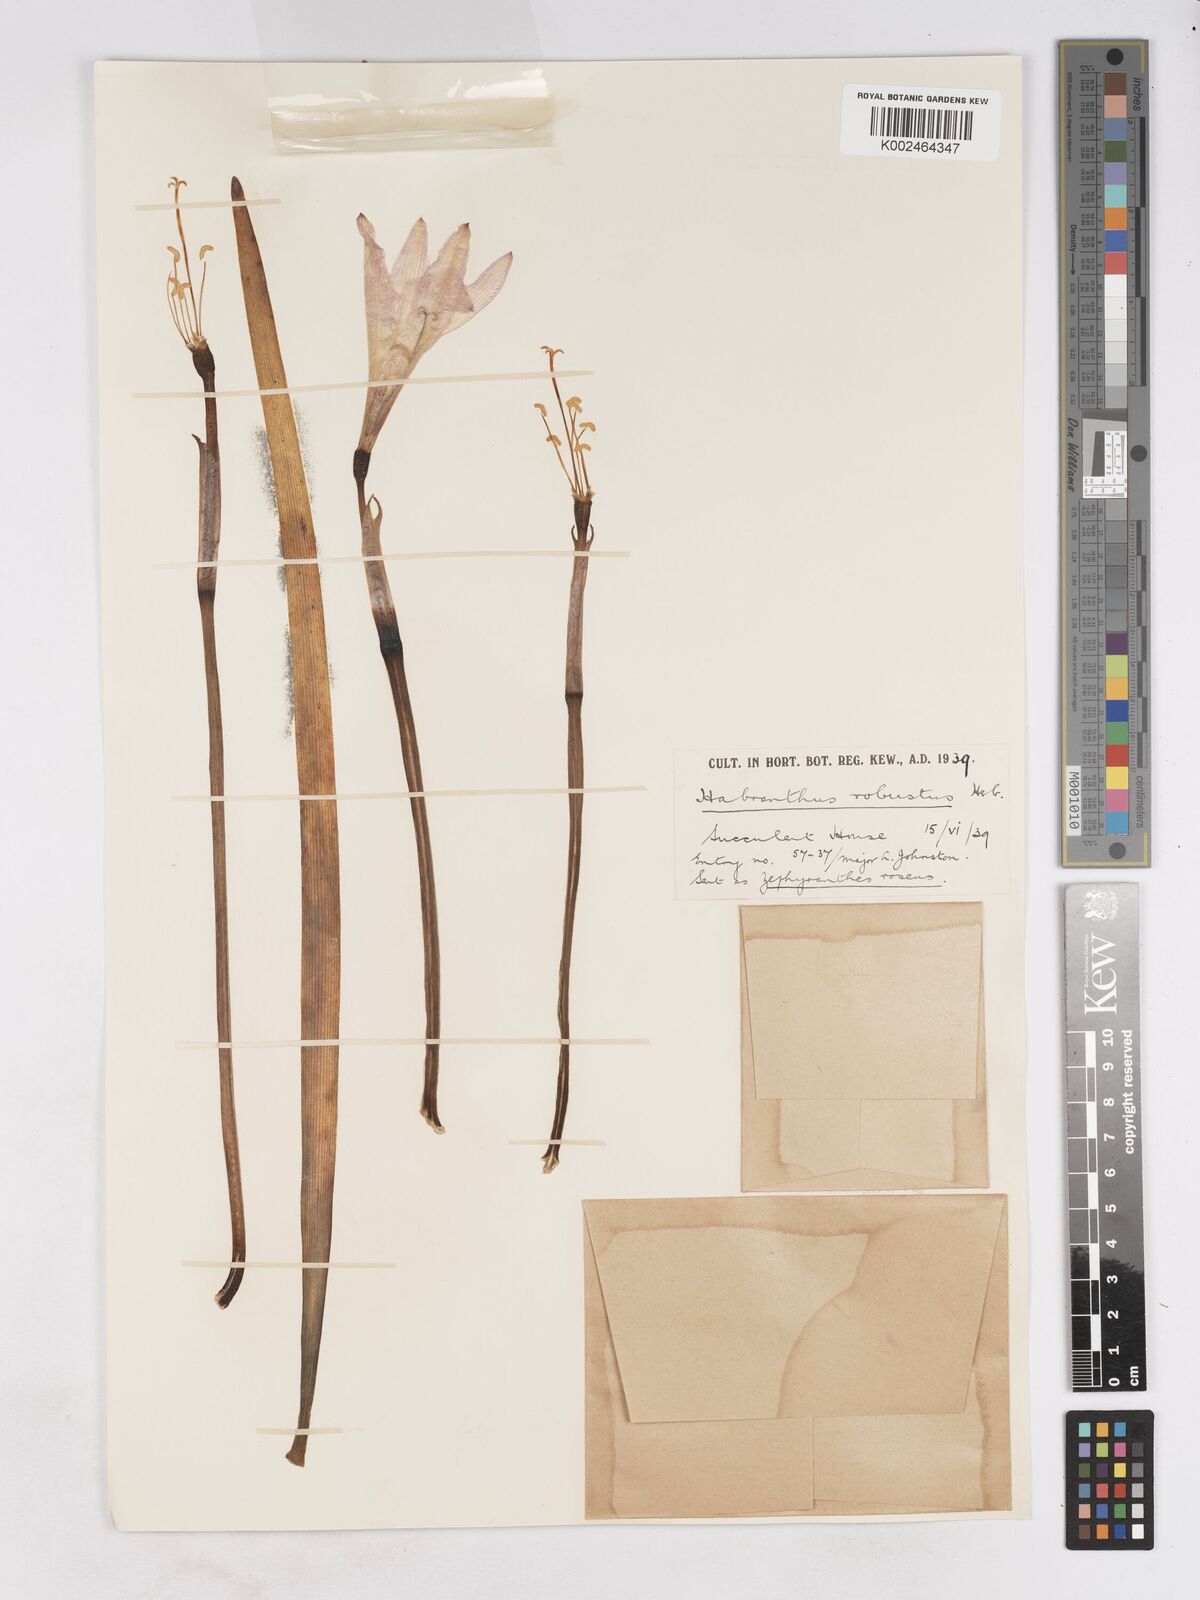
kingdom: Plantae
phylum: Tracheophyta
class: Liliopsida
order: Asparagales
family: Amaryllidaceae
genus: Zephyranthes
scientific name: Zephyranthes robusta
